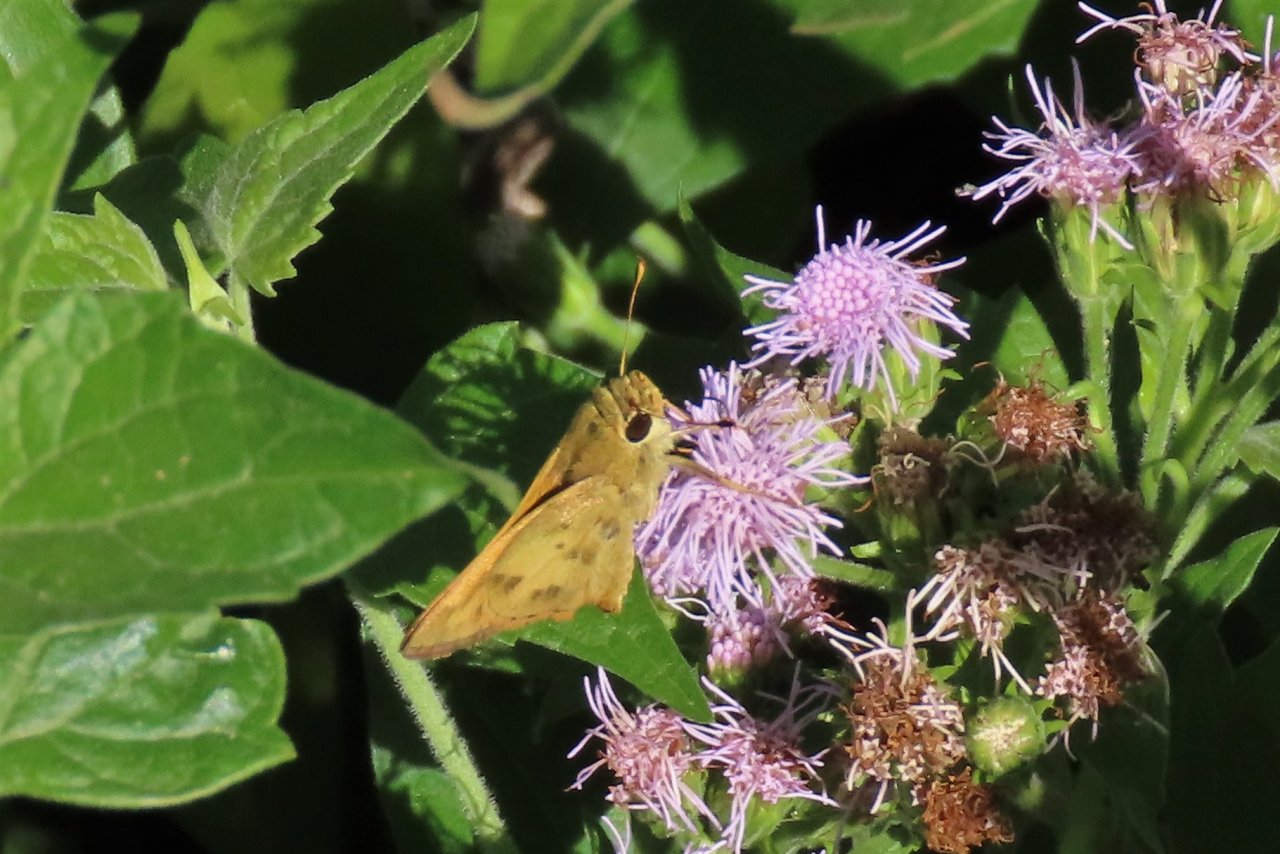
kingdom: Animalia
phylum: Arthropoda
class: Insecta
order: Lepidoptera
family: Hesperiidae
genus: Polites
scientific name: Polites vibex
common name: Whirlabout
